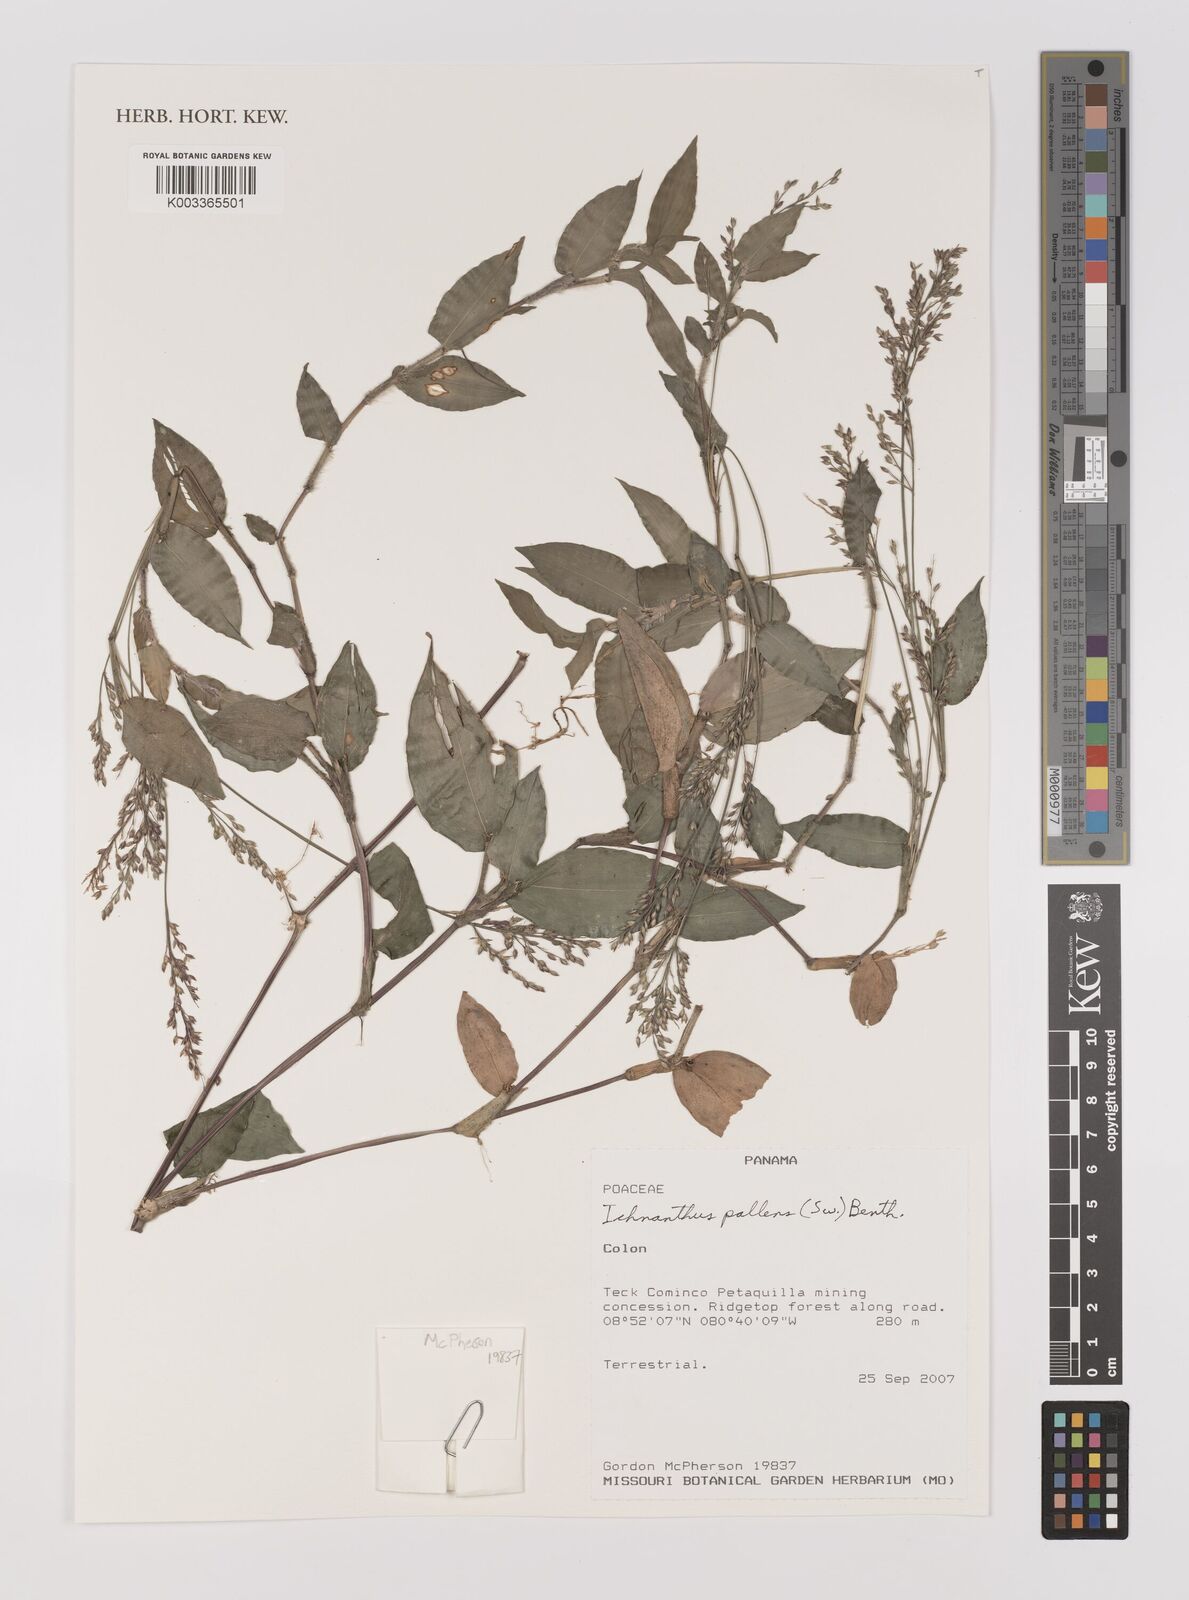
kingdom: Plantae
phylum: Tracheophyta
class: Liliopsida
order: Poales
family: Poaceae
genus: Ichnanthus
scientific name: Ichnanthus pallens
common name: Water grass
